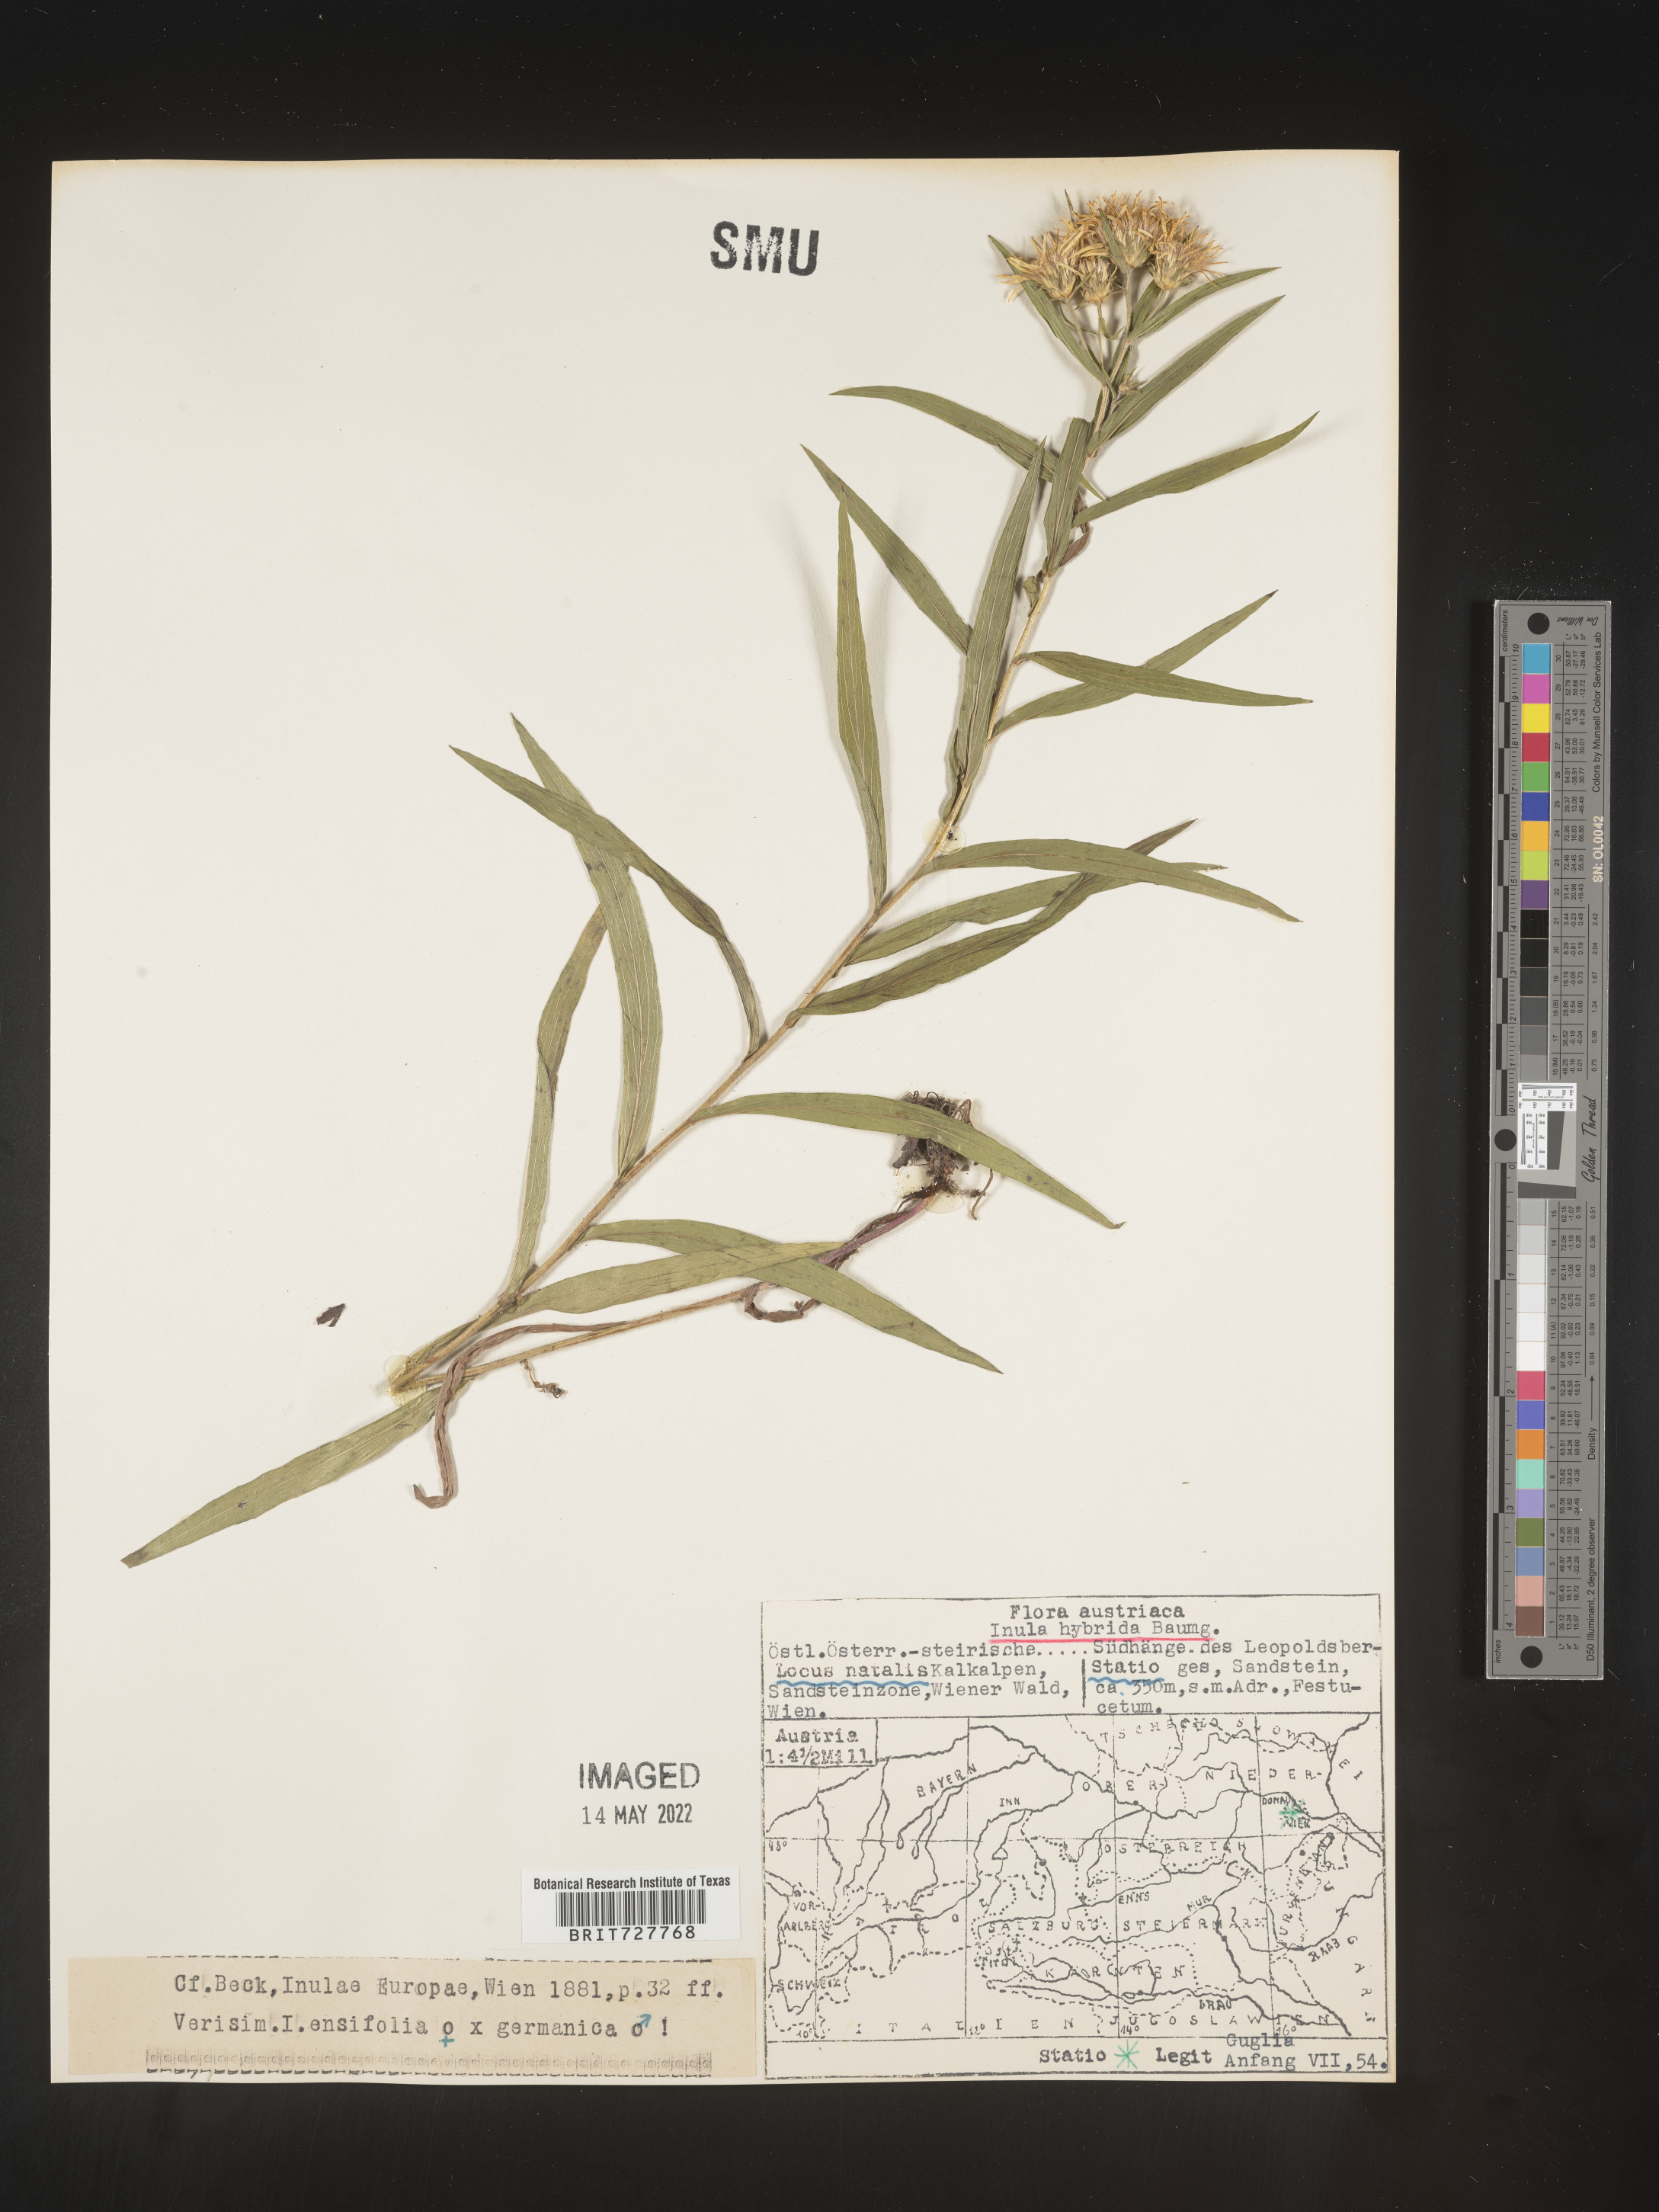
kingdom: Plantae
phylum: Tracheophyta
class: Magnoliopsida
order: Asterales
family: Asteraceae
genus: Inula
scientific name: Inula
